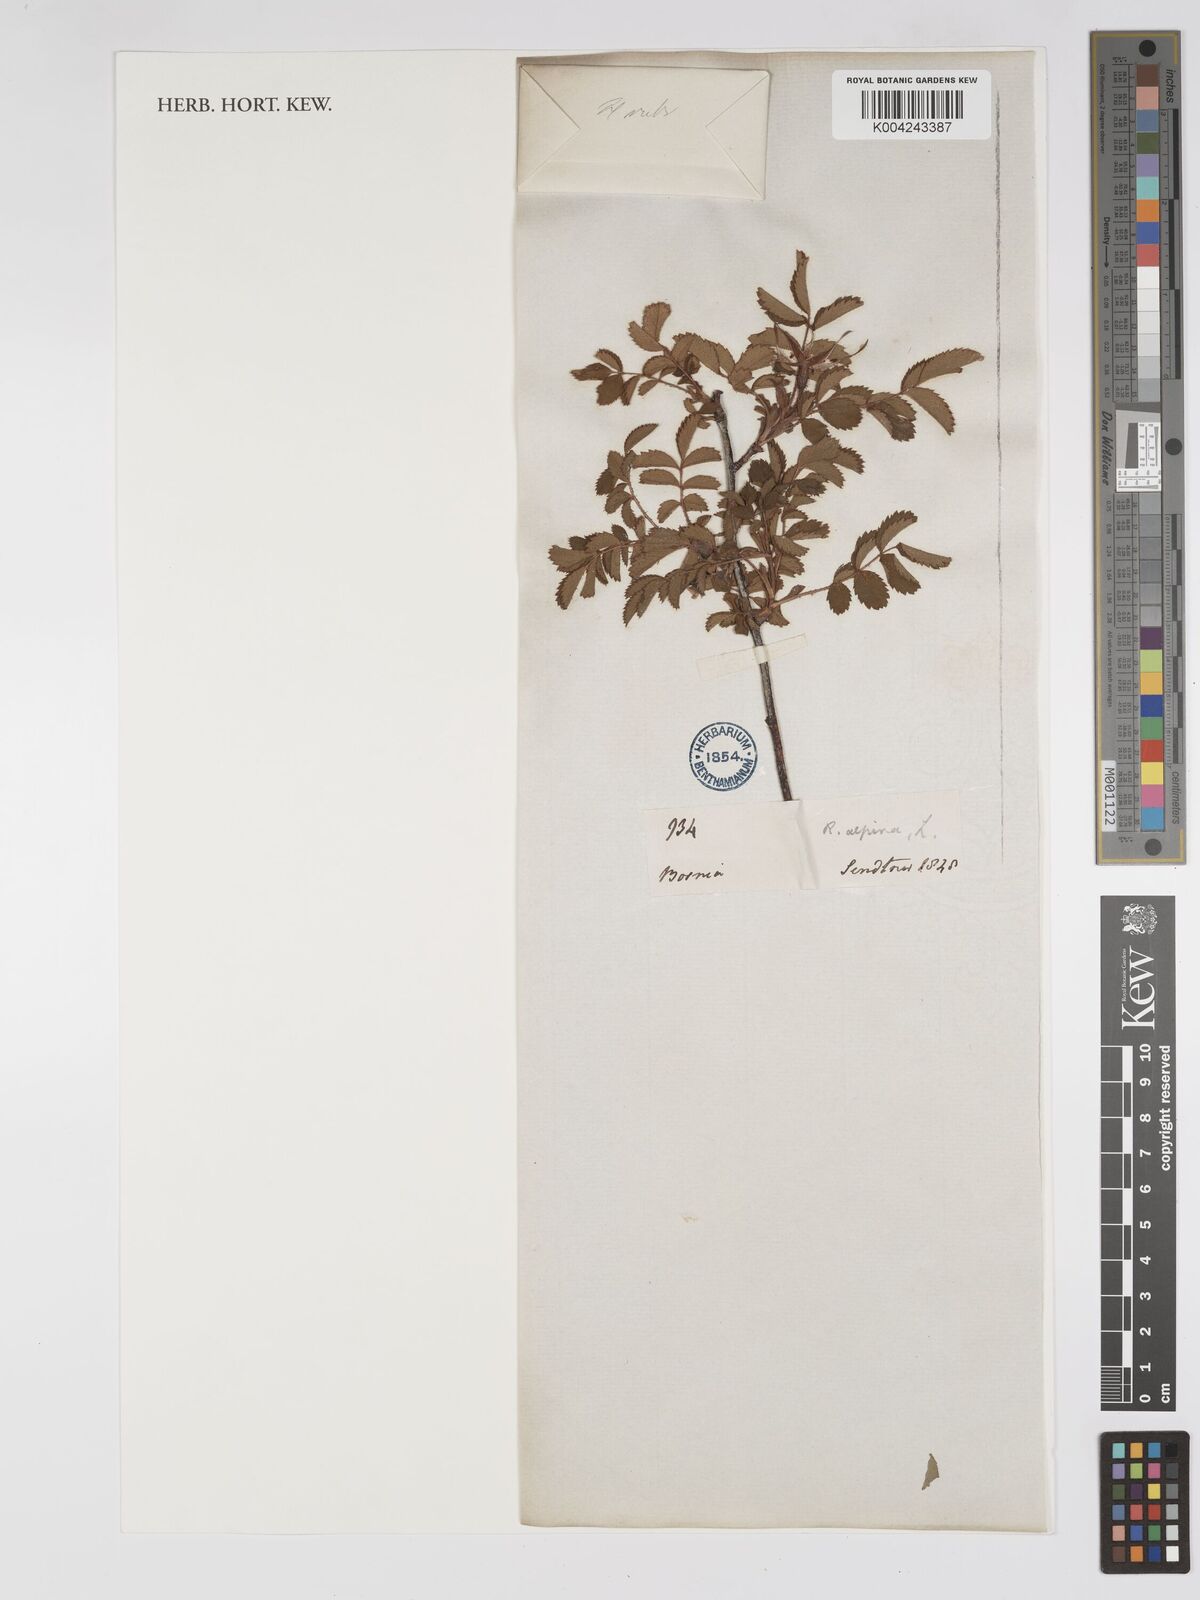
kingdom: Plantae
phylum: Tracheophyta
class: Magnoliopsida
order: Rosales
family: Rosaceae
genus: Rosa
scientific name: Rosa pendulina
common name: Alpine rose
